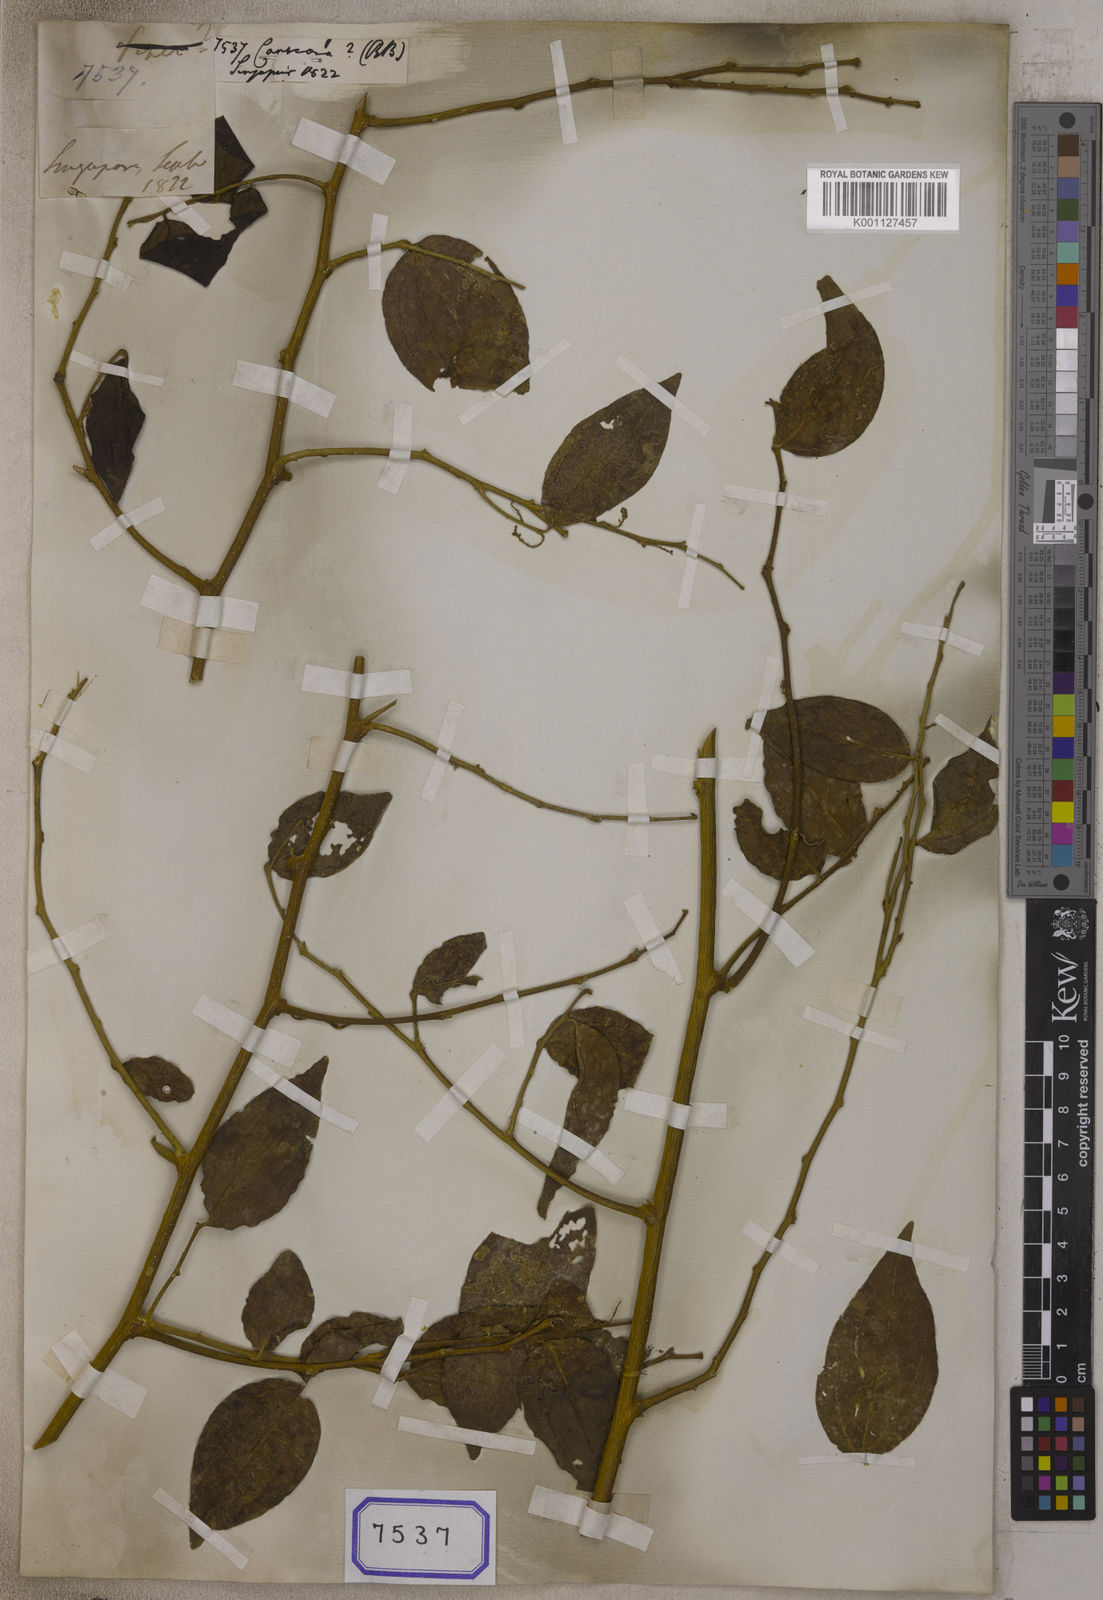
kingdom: Plantae
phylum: Tracheophyta
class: Magnoliopsida
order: Santalales
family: Opiliaceae
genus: Cansjera
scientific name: Cansjera
